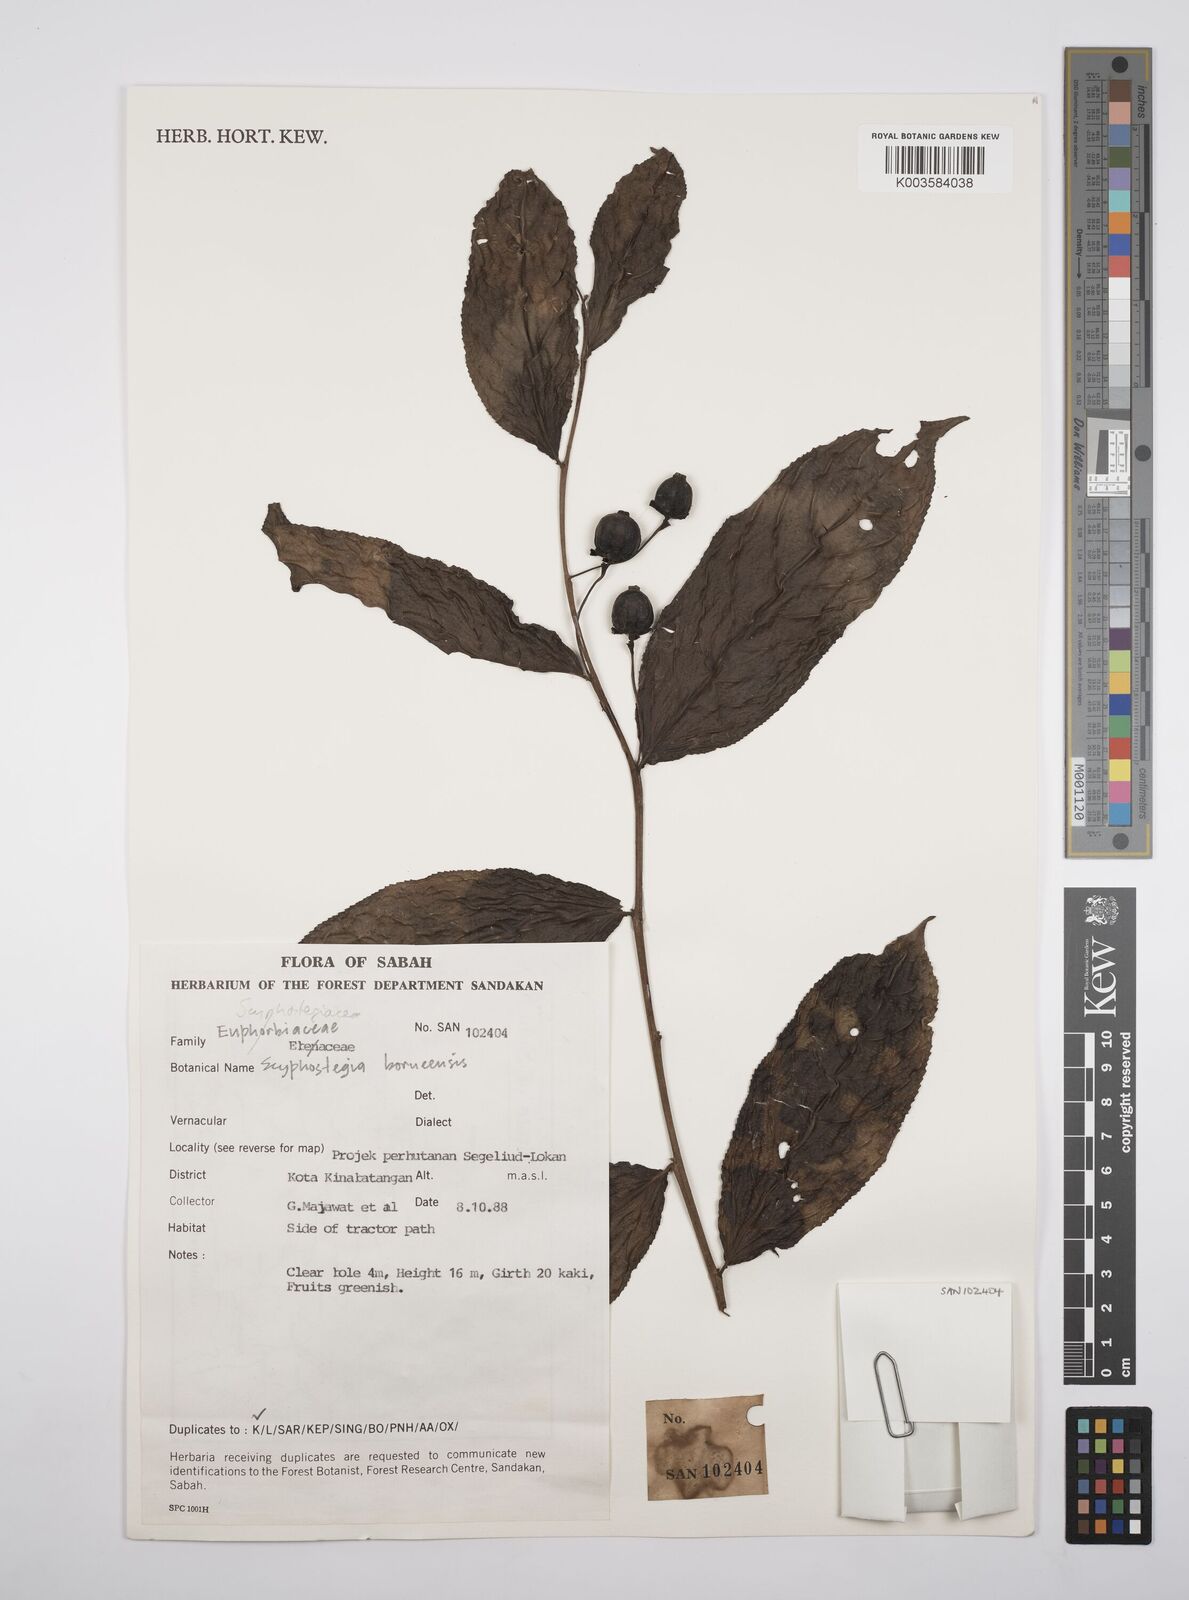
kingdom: Plantae
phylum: Tracheophyta
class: Magnoliopsida
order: Malpighiales
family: Salicaceae
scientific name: Salicaceae
